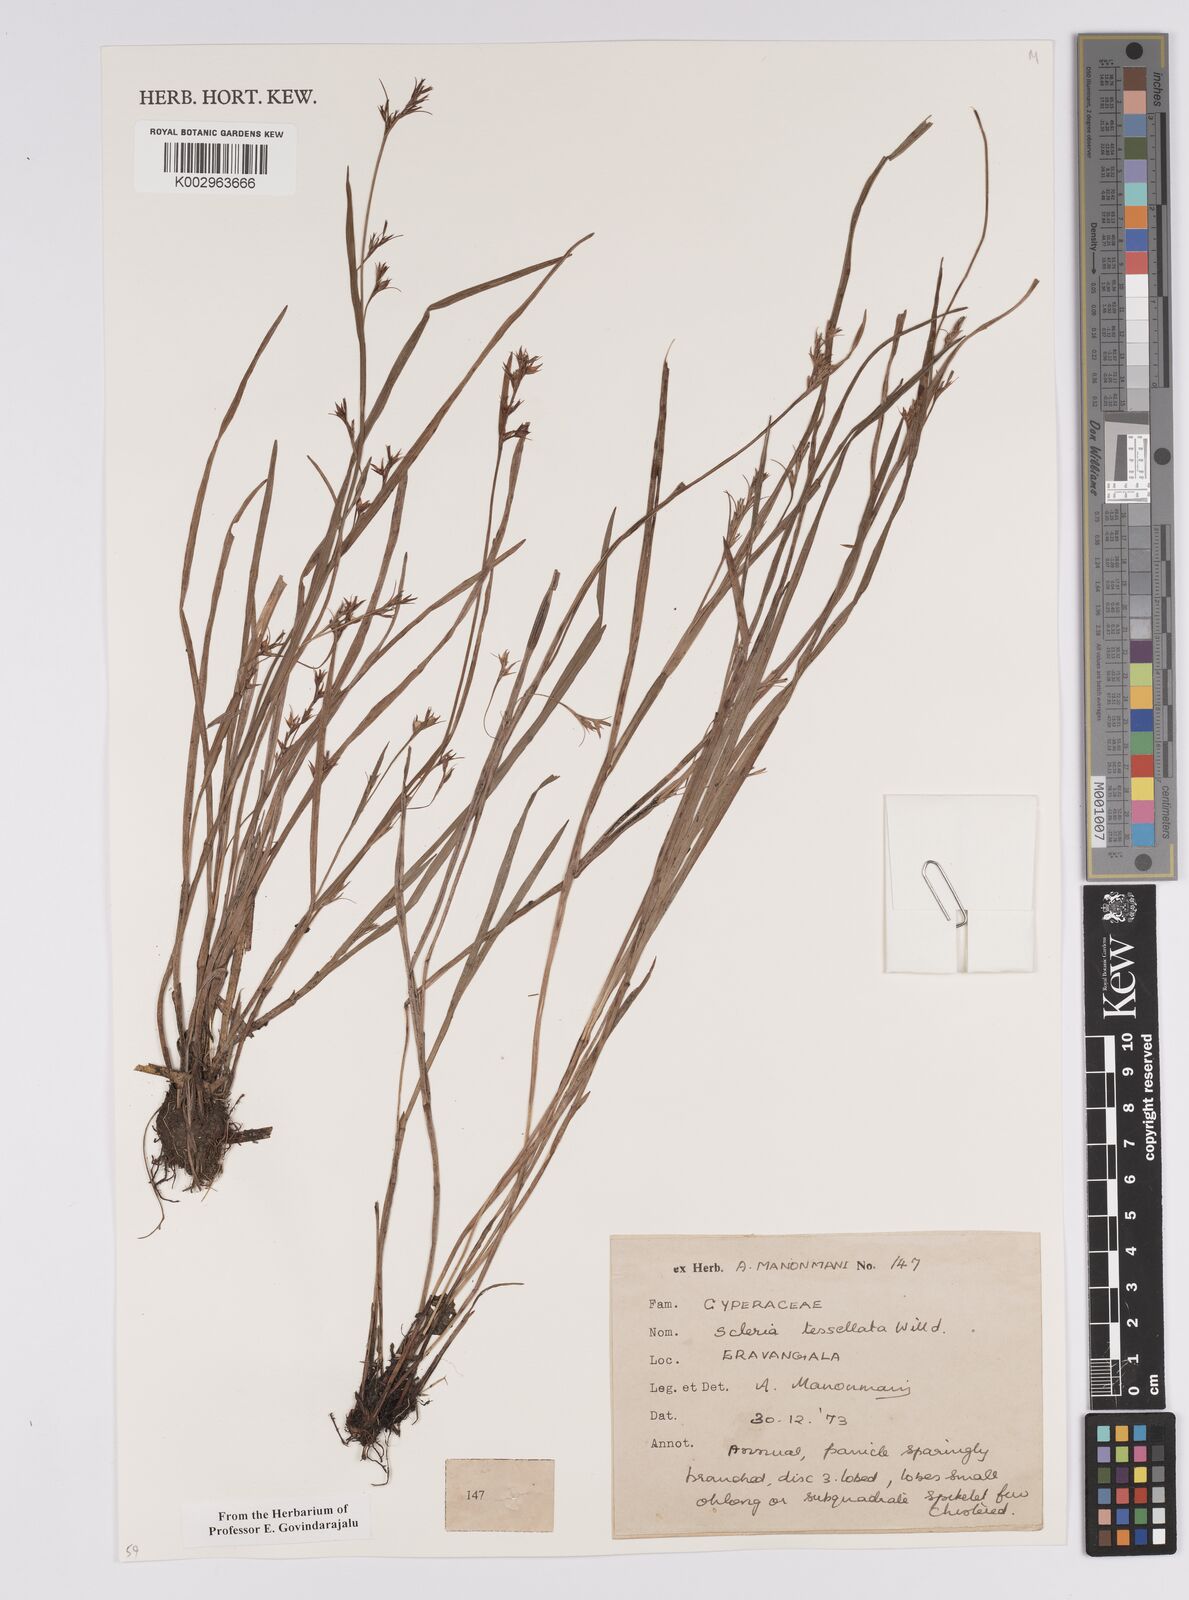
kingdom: Plantae
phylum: Tracheophyta
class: Liliopsida
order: Poales
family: Cyperaceae
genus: Scleria
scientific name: Scleria tessellata
